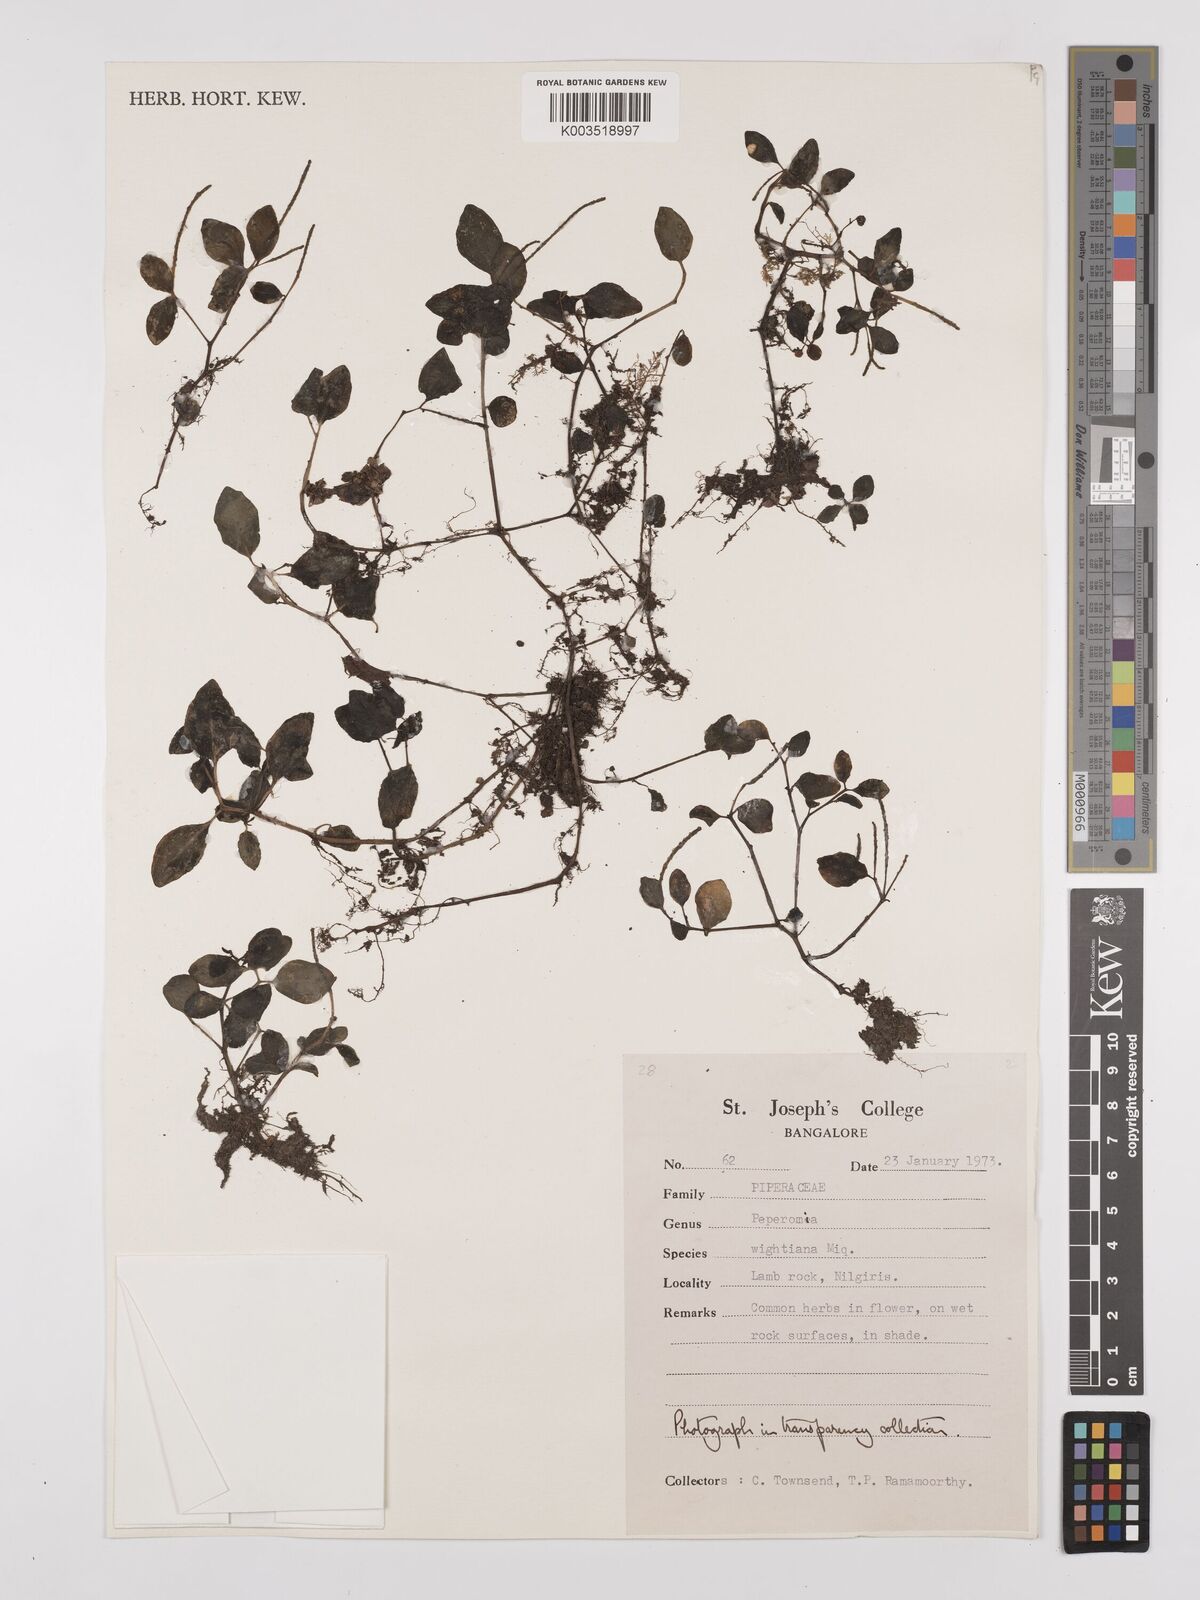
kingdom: Plantae
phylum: Tracheophyta
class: Magnoliopsida
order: Piperales
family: Piperaceae
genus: Peperomia
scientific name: Peperomia wightiana
